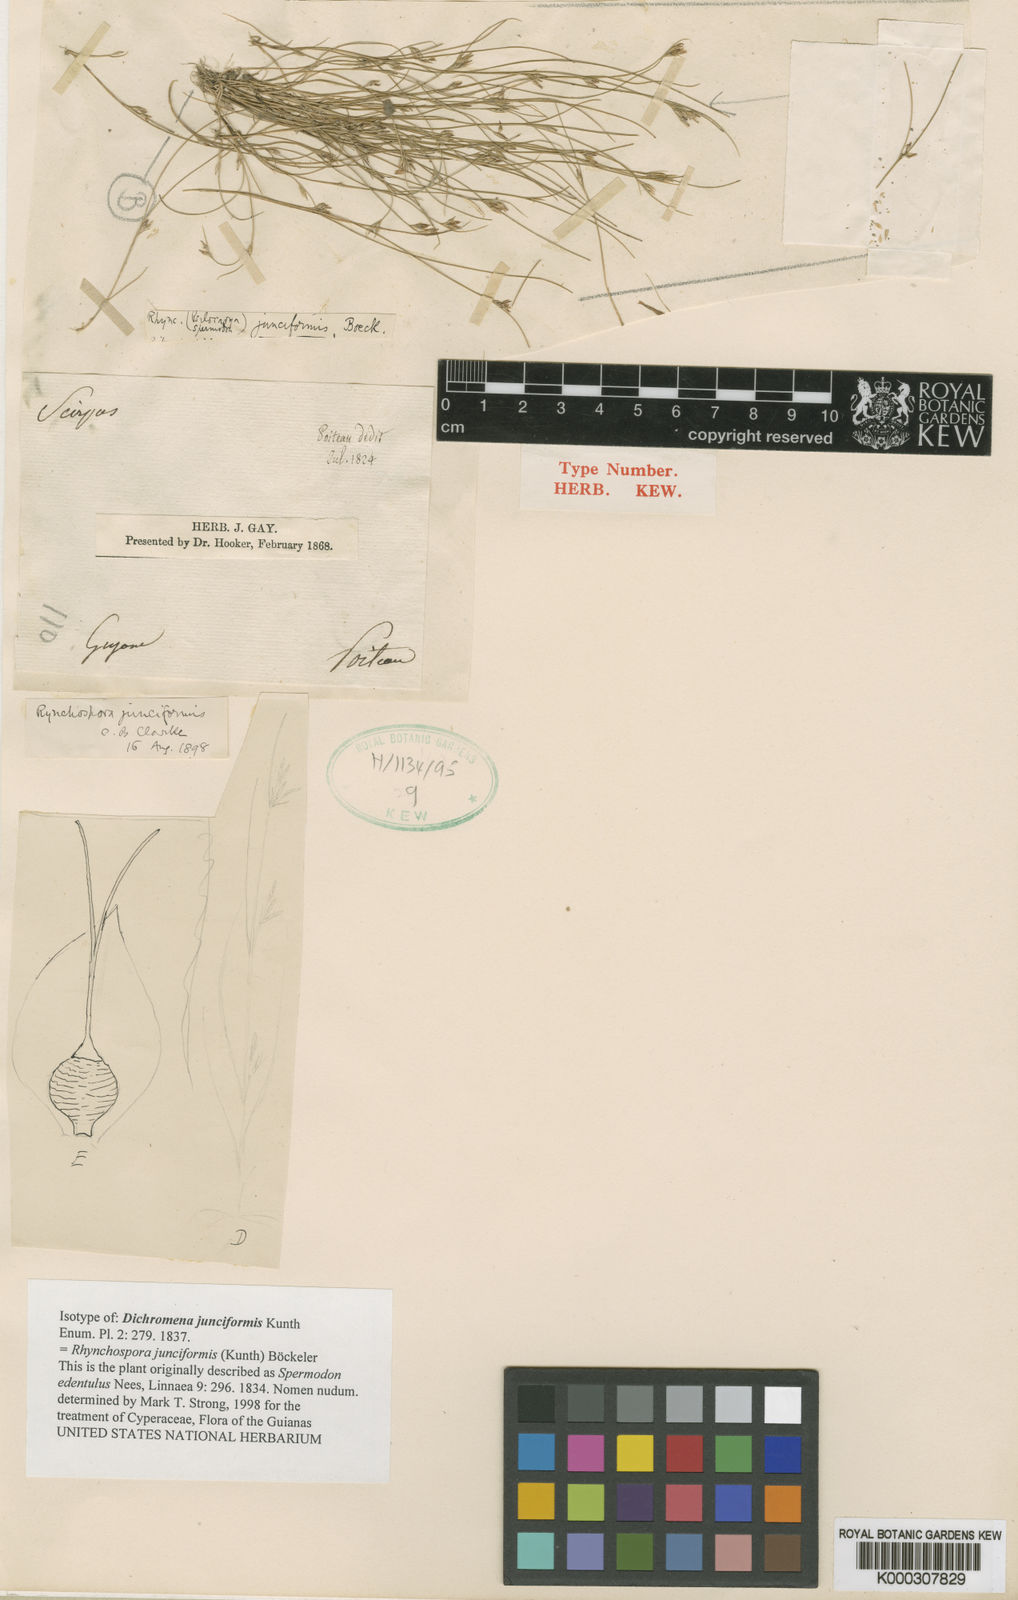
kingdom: Plantae
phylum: Tracheophyta
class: Liliopsida
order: Poales
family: Cyperaceae
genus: Rhynchospora
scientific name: Rhynchospora junciformis
